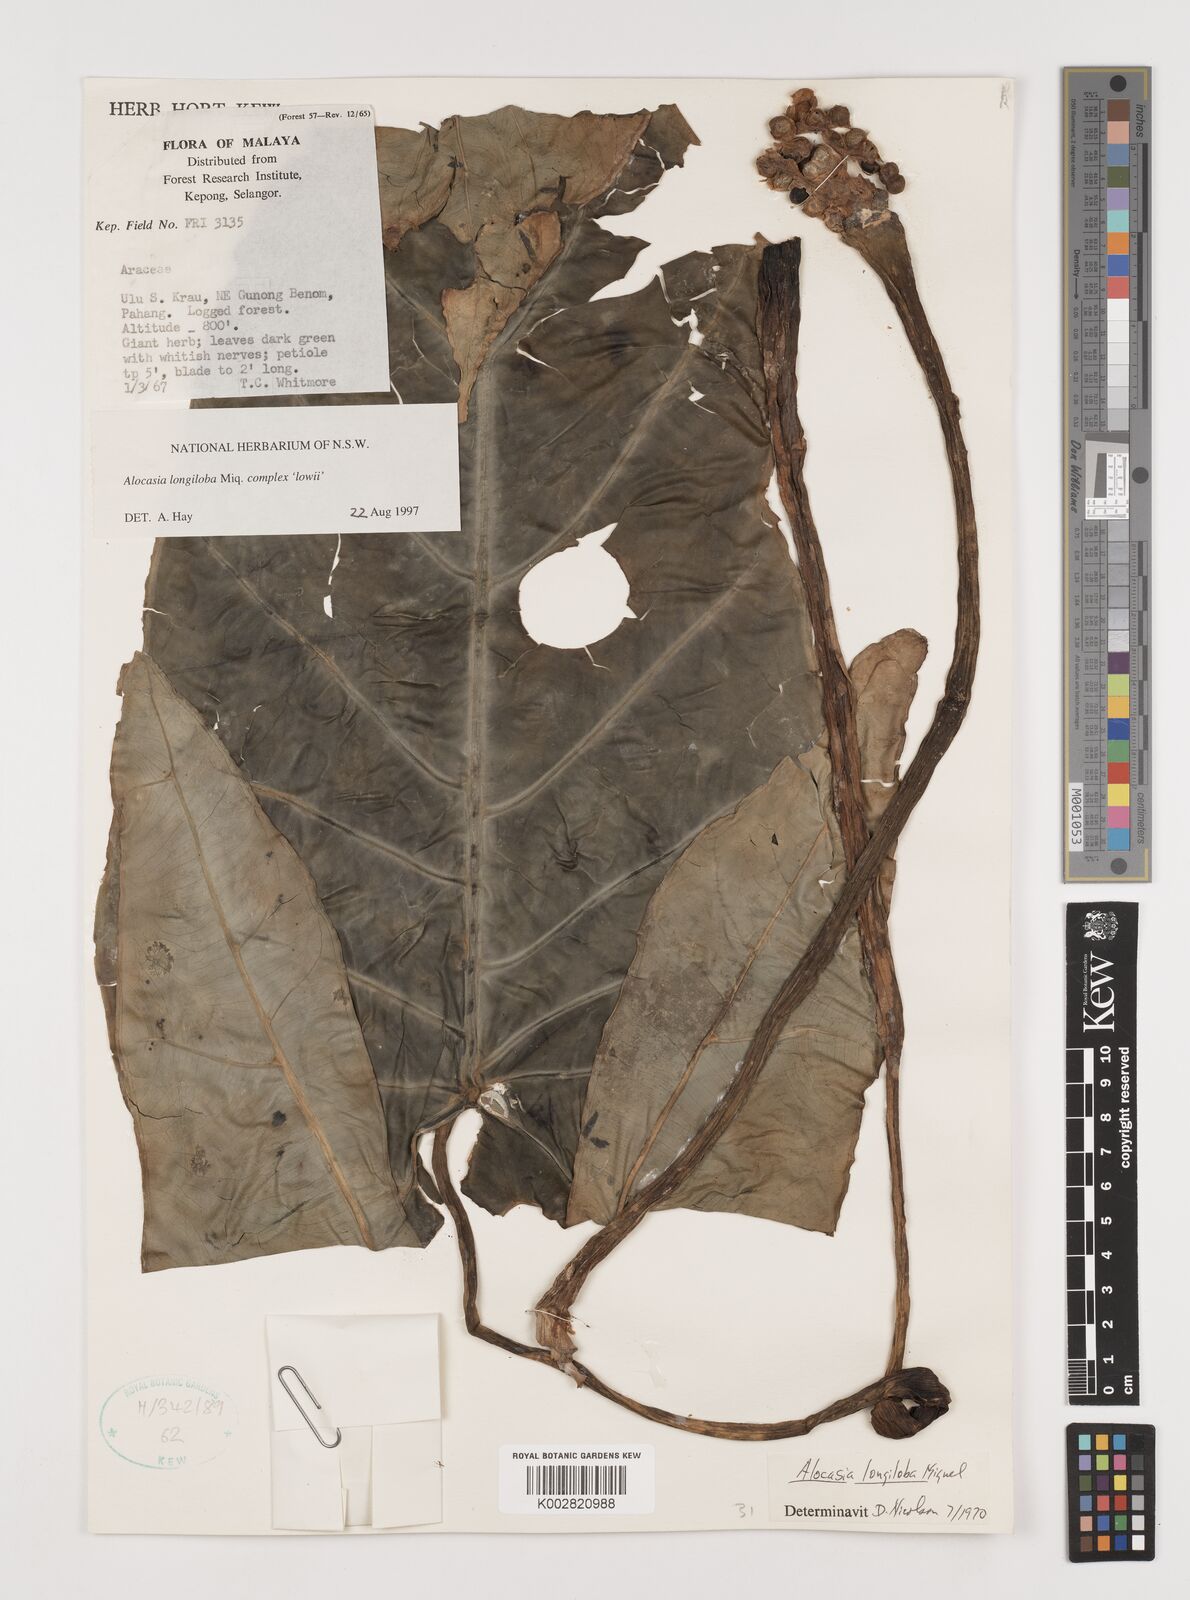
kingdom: Plantae
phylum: Tracheophyta
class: Liliopsida
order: Alismatales
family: Araceae
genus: Alocasia
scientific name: Alocasia longiloba
